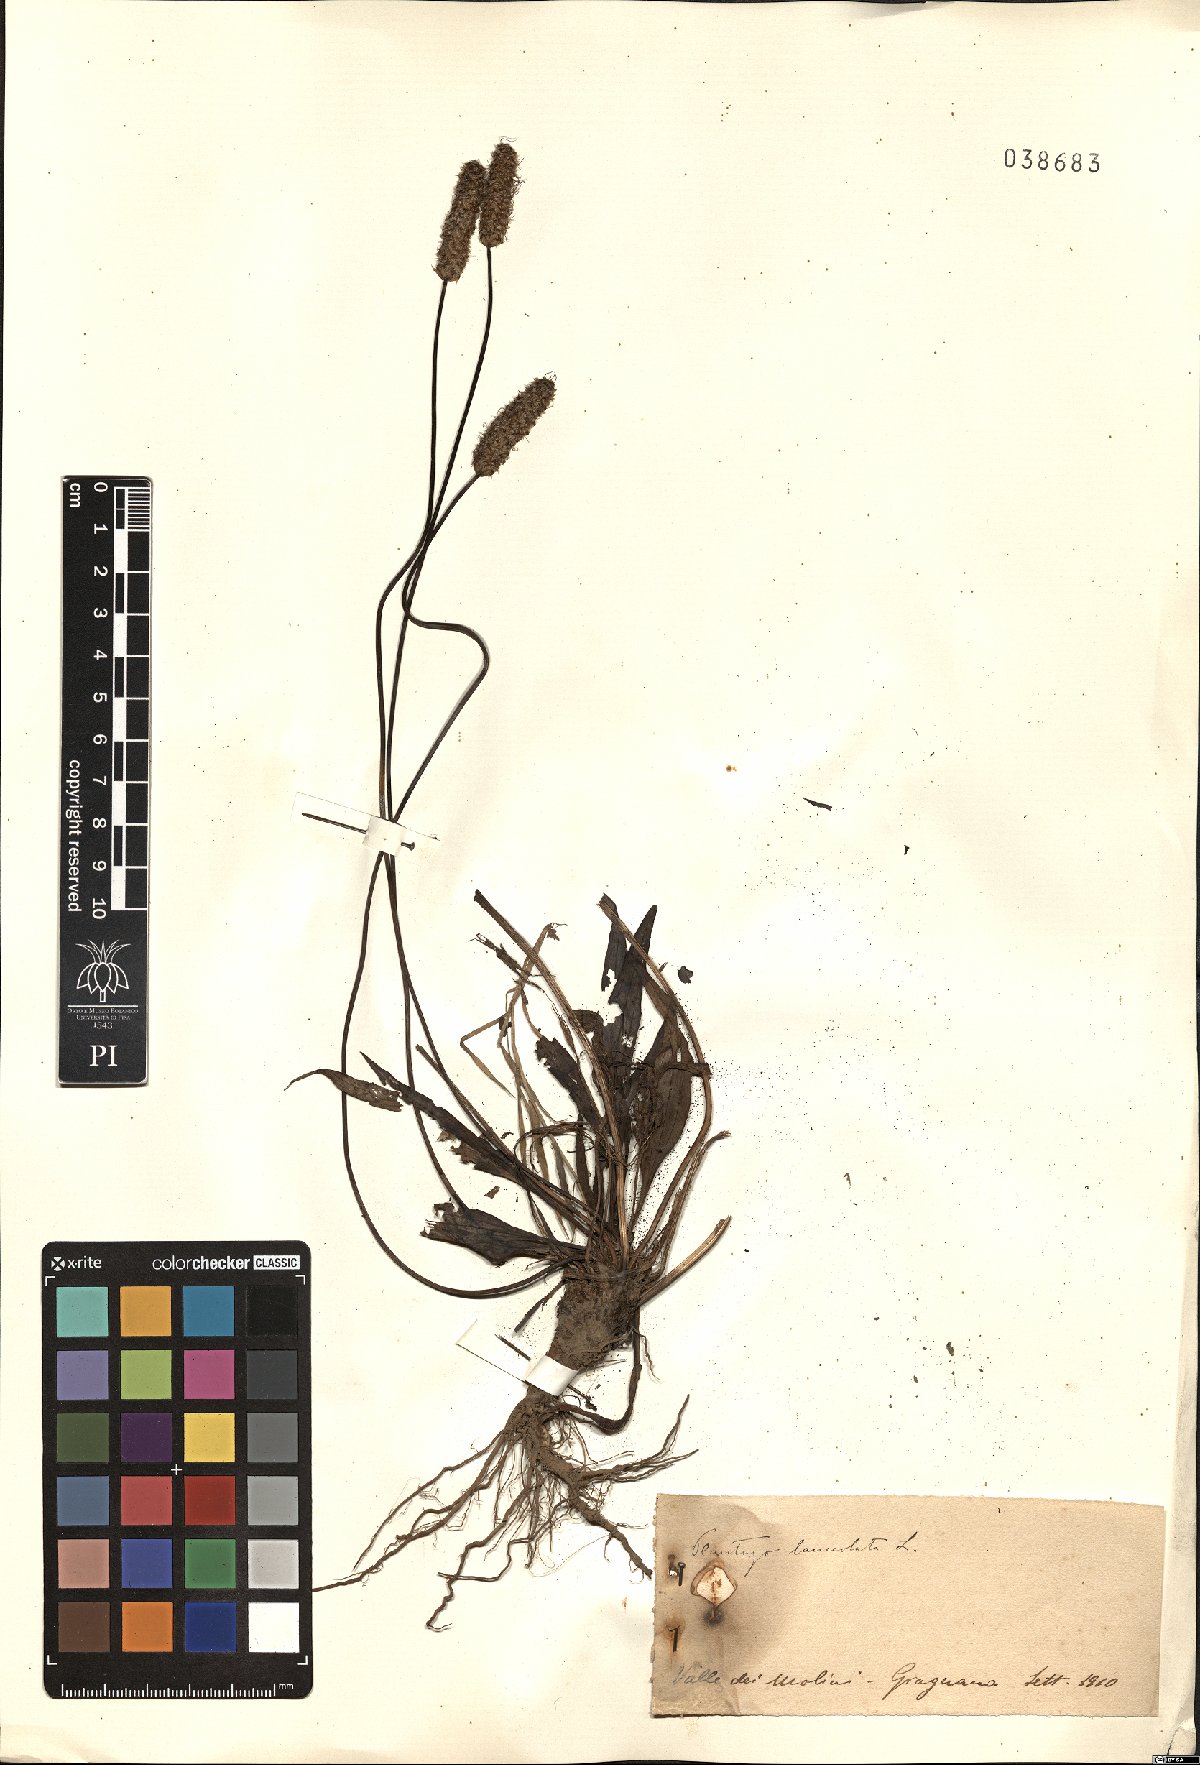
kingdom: Plantae
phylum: Tracheophyta
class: Magnoliopsida
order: Lamiales
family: Plantaginaceae
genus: Plantago
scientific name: Plantago lanceolata
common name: Ribwort plantain
